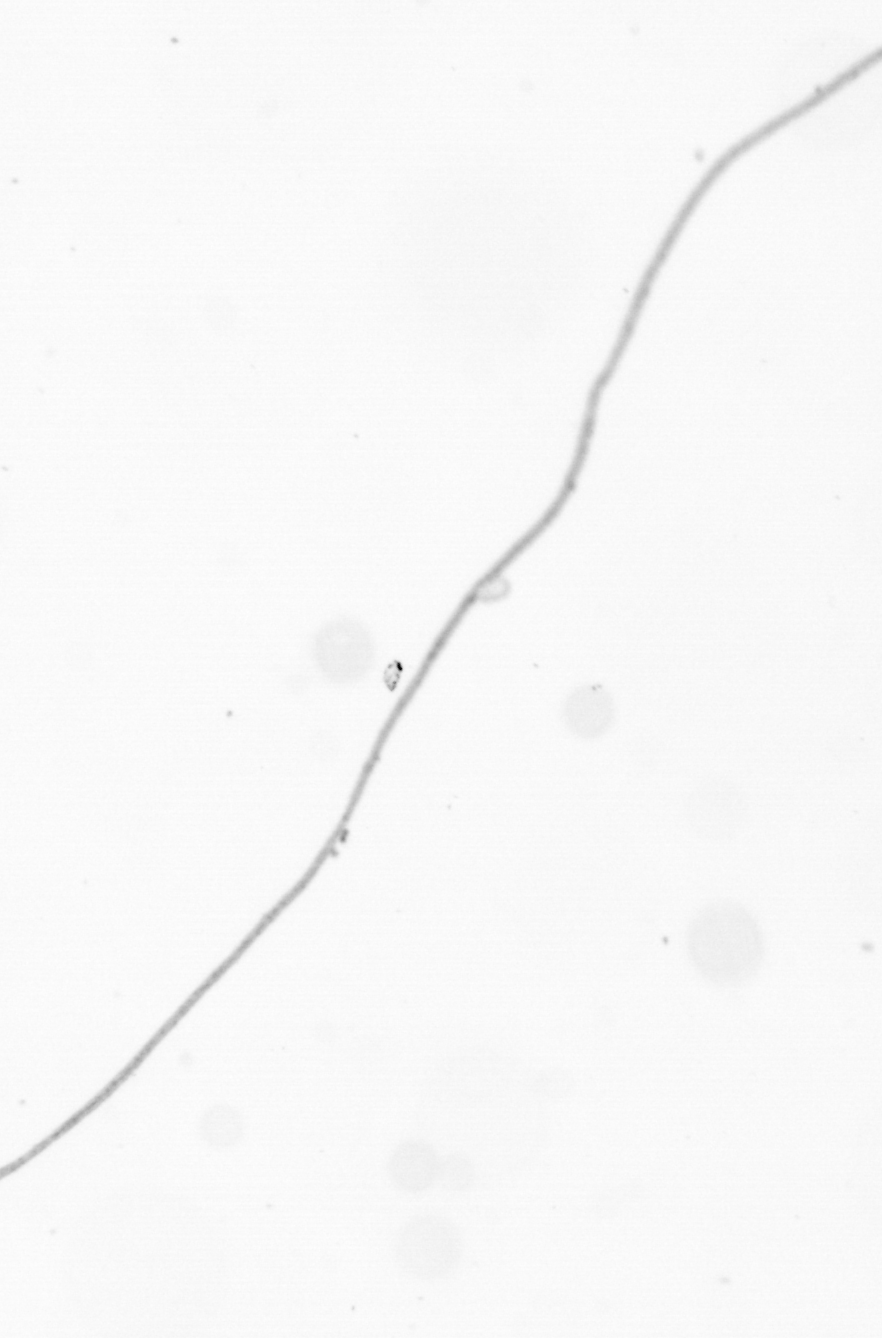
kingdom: Chromista
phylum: Ochrophyta
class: Bacillariophyceae
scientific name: Bacillariophyceae
